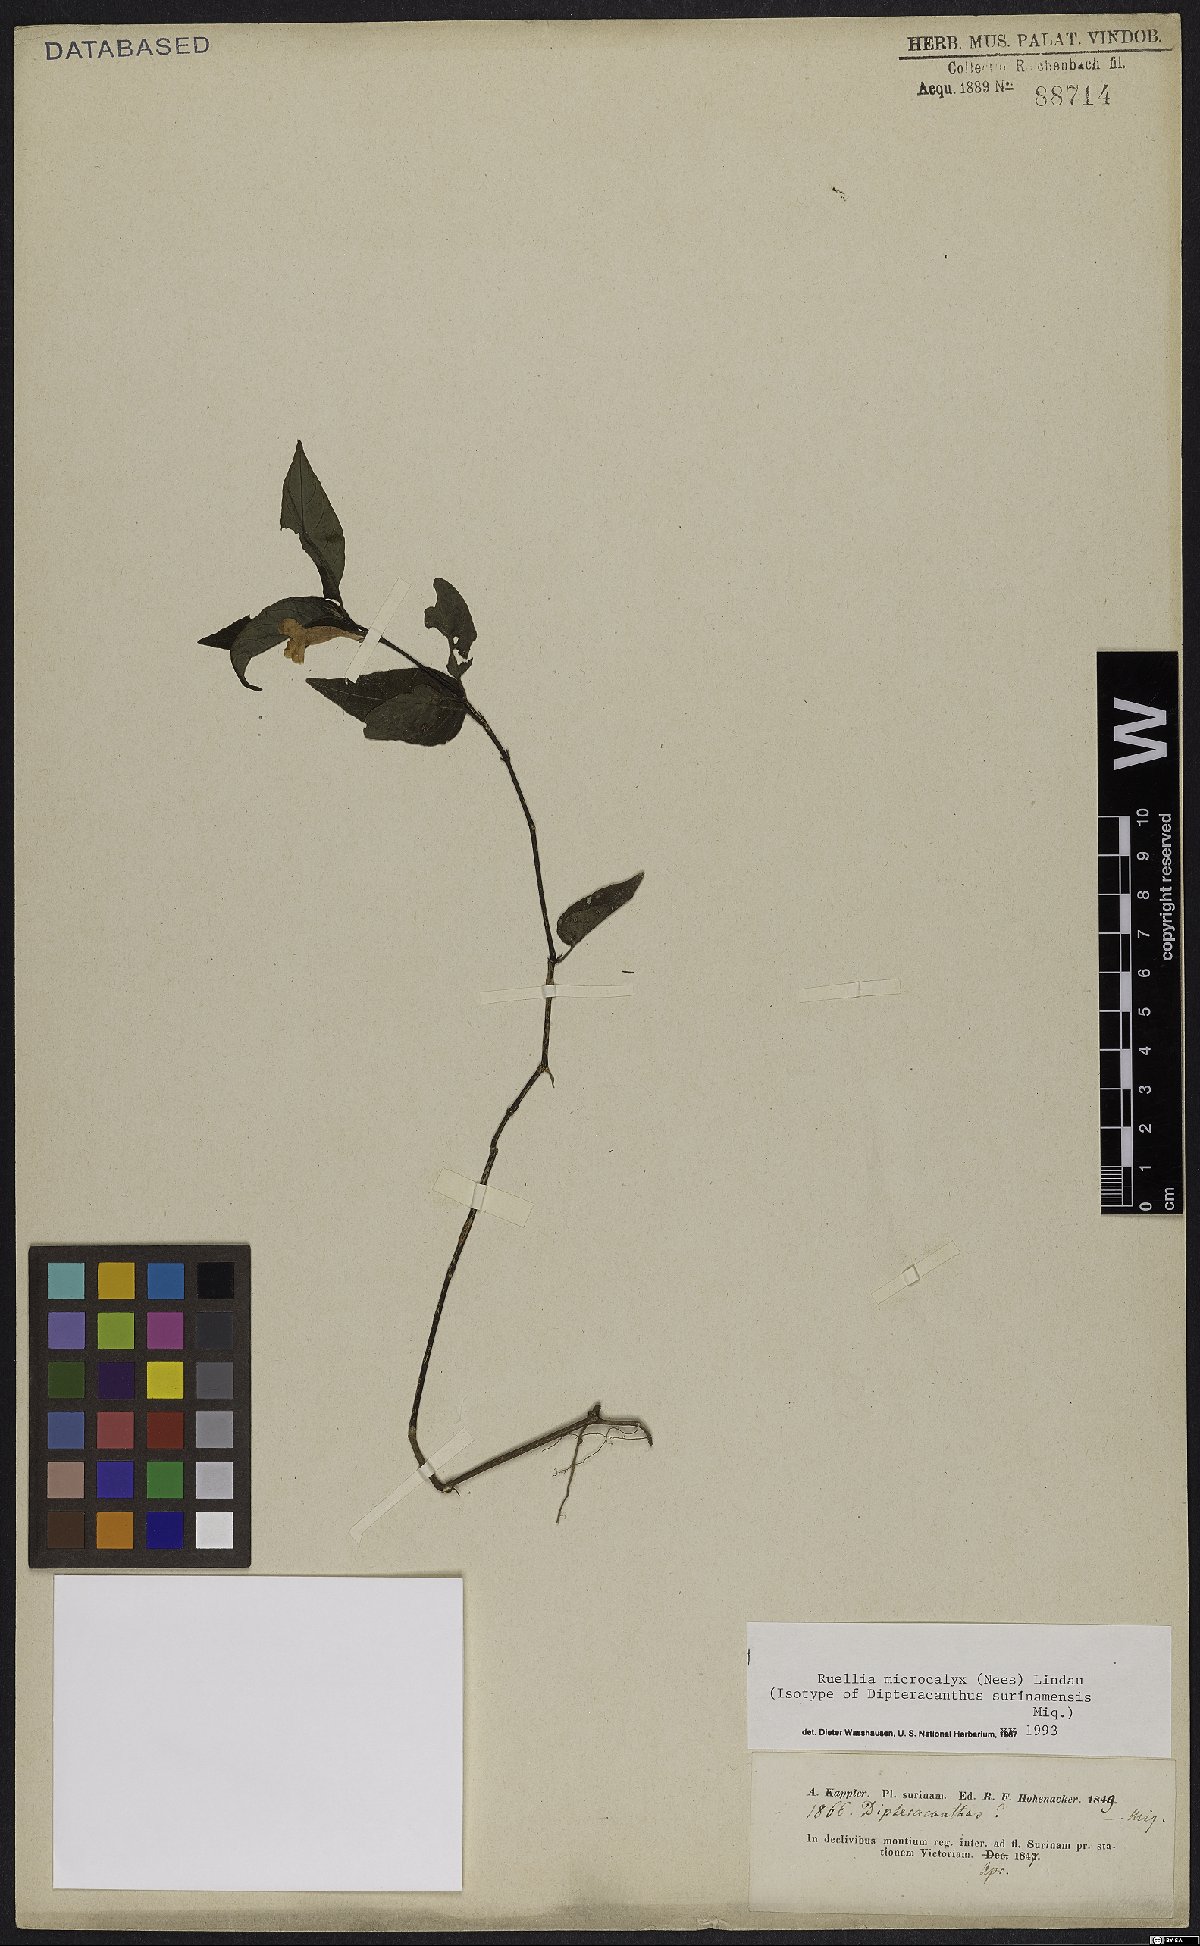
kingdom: Plantae
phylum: Tracheophyta
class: Magnoliopsida
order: Lamiales
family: Acanthaceae
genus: Ruellia
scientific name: Ruellia microcalyx
